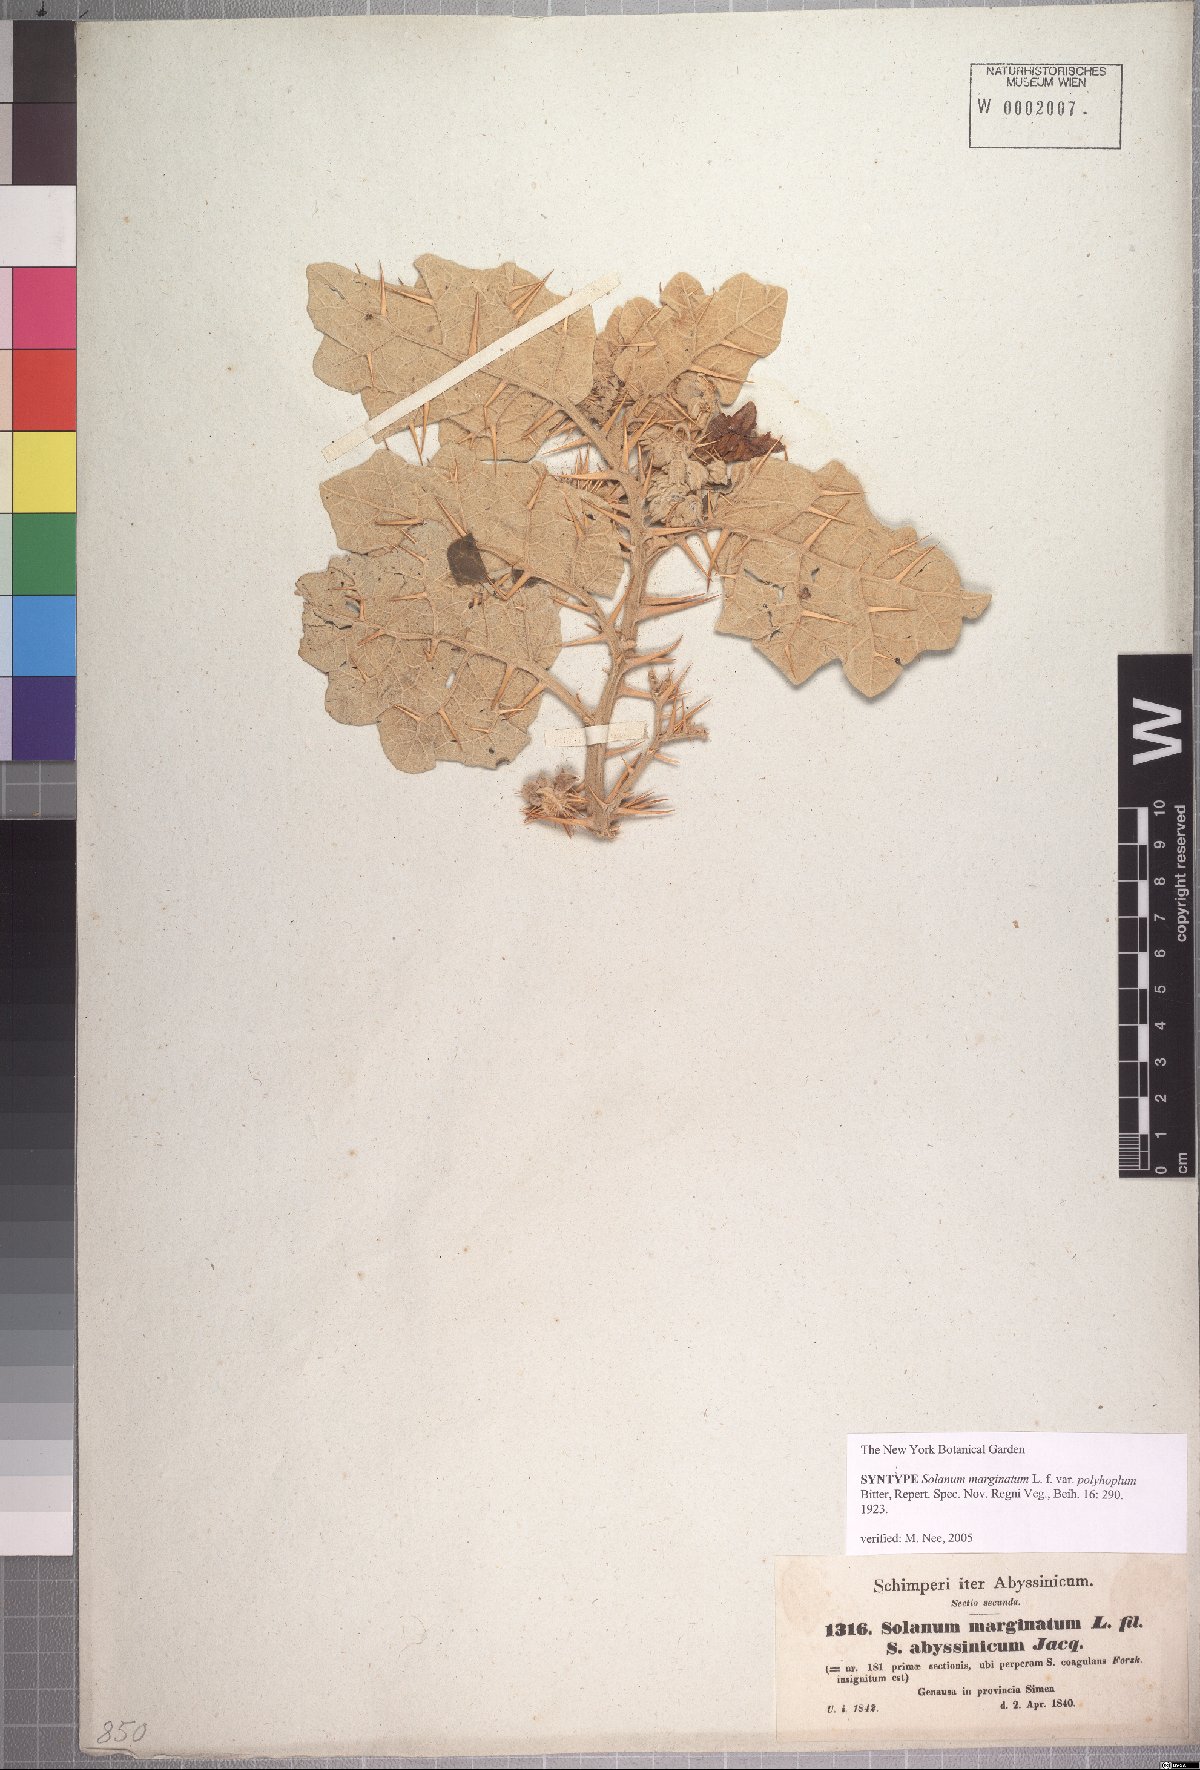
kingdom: Plantae
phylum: Tracheophyta
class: Magnoliopsida
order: Solanales
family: Solanaceae
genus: Solanum
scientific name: Solanum marginatum
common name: Purple african nightshade
